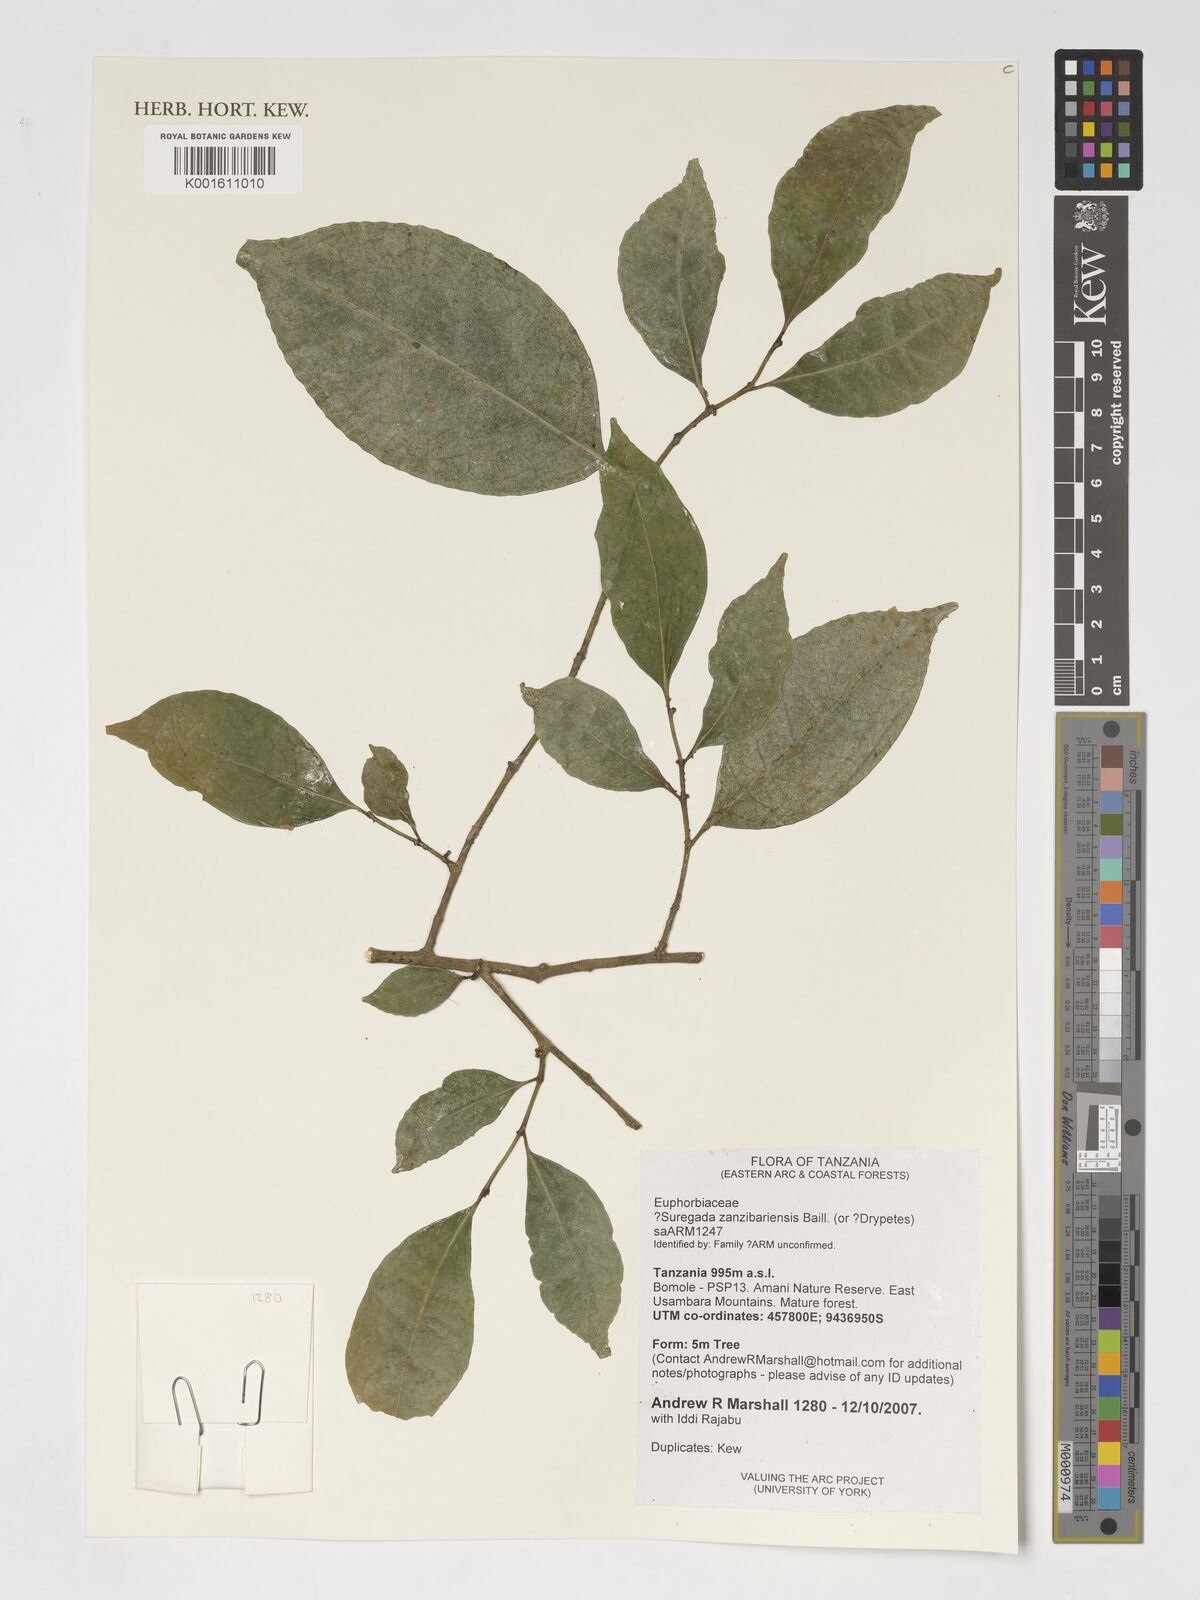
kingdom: Plantae
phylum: Tracheophyta
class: Magnoliopsida
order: Malpighiales
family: Euphorbiaceae
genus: Suregada
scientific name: Suregada zanzibariensis
